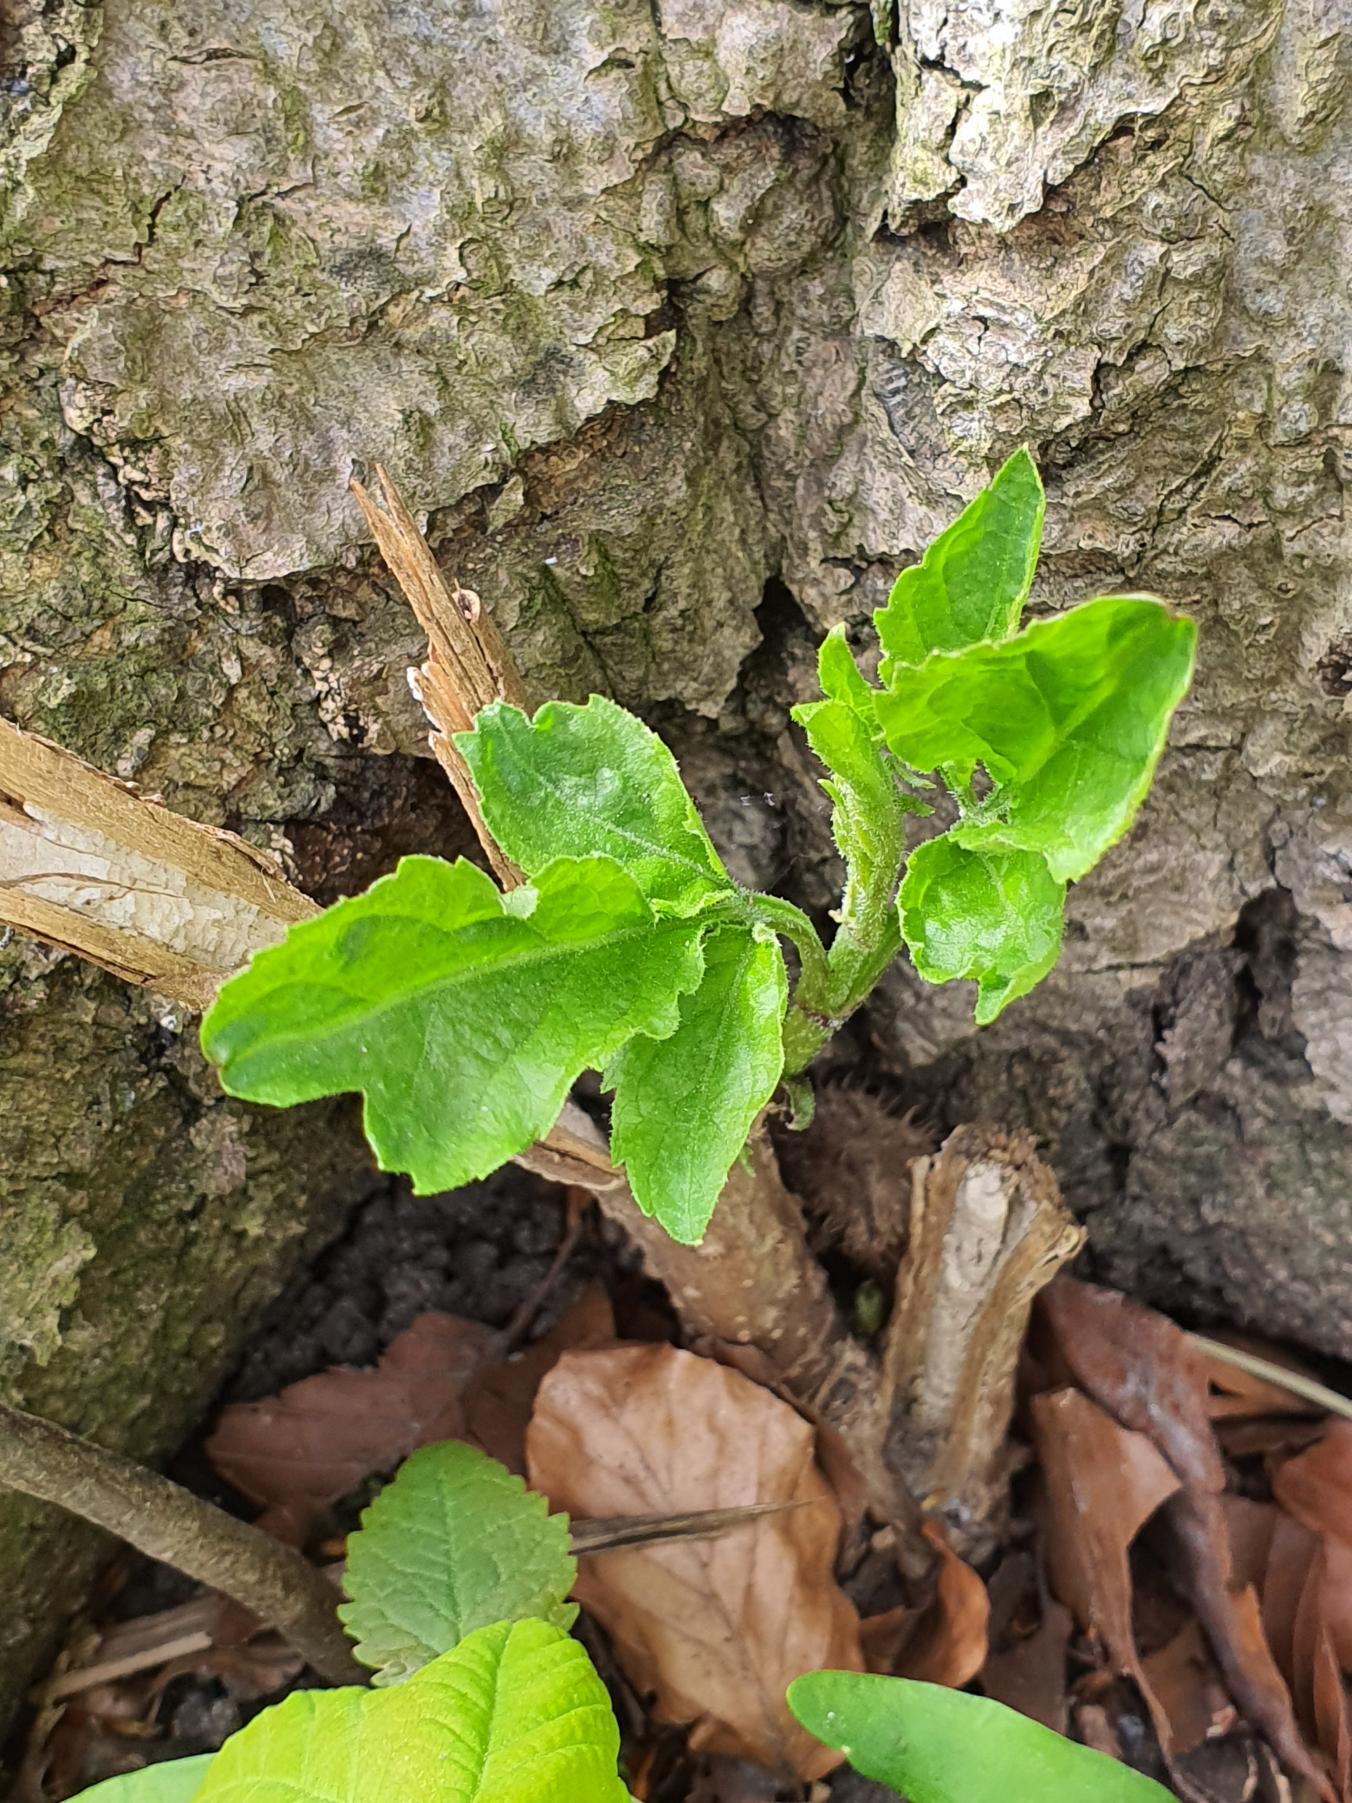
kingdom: Plantae
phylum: Tracheophyta
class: Magnoliopsida
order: Dipsacales
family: Viburnaceae
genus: Sambucus
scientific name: Sambucus nigra
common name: Almindelig hyld
